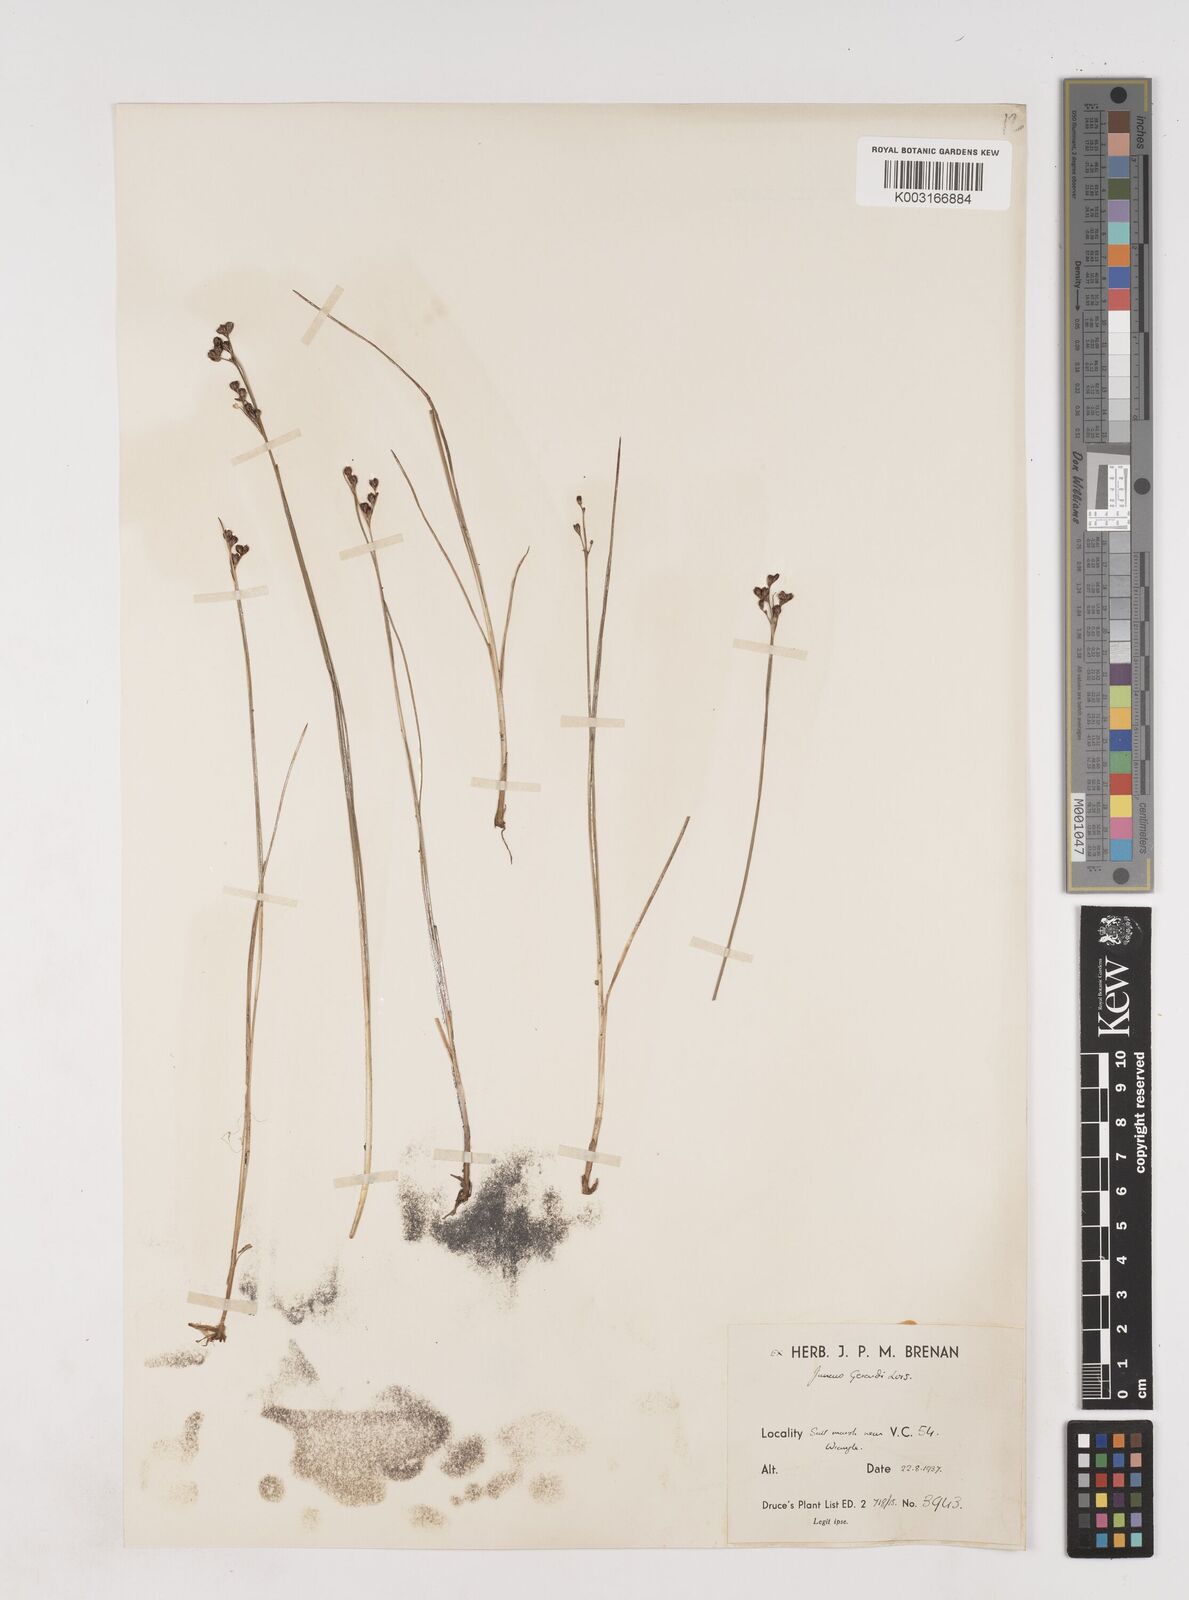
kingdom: Plantae
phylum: Tracheophyta
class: Liliopsida
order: Poales
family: Juncaceae
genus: Juncus
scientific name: Juncus gerardi
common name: Saltmarsh rush
